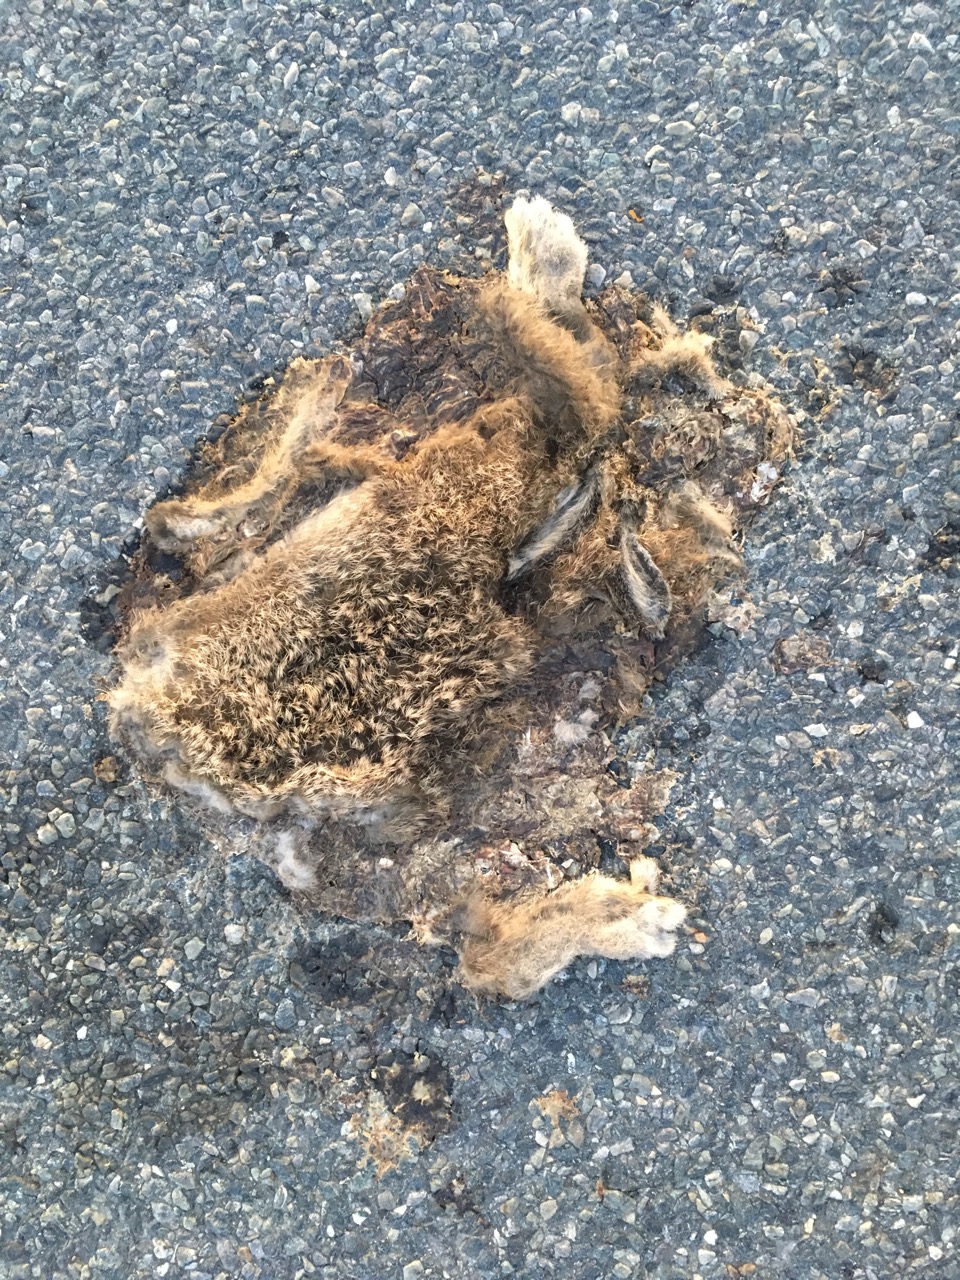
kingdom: Animalia
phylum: Chordata
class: Mammalia
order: Lagomorpha
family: Leporidae
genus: Lepus
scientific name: Lepus europaeus
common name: European hare
